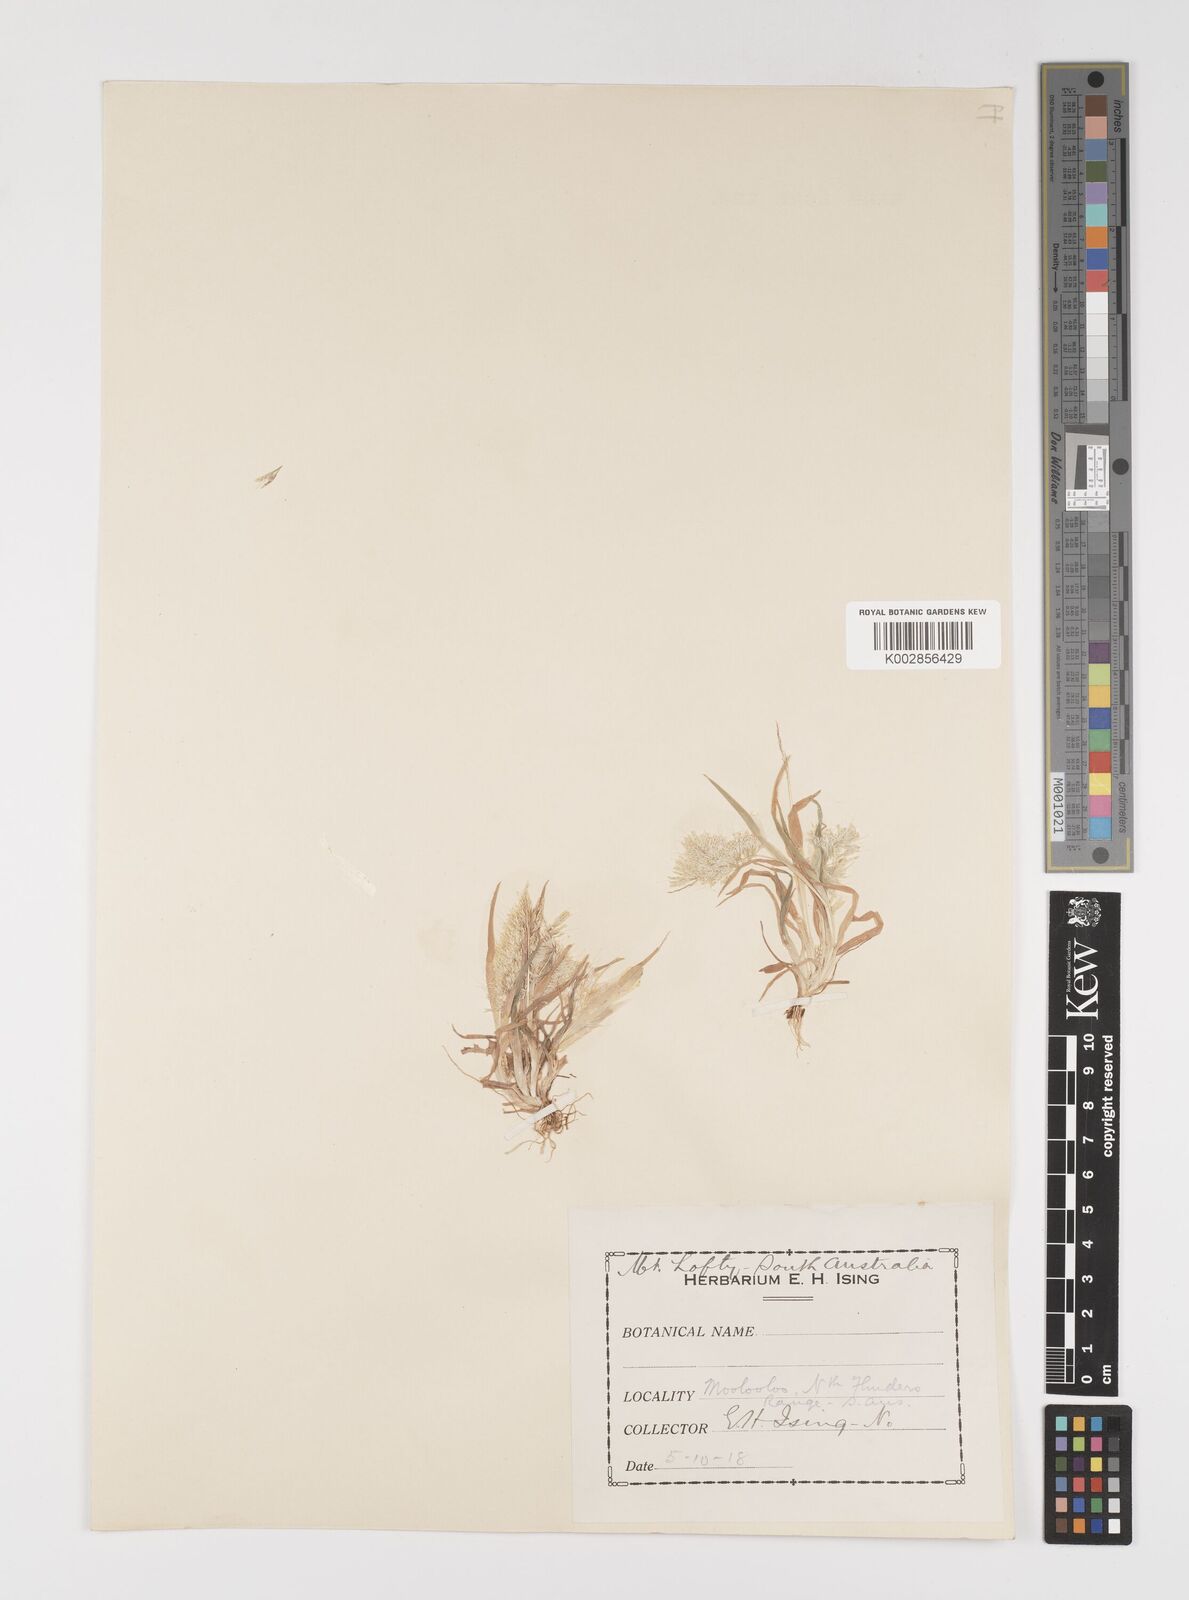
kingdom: Plantae
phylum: Tracheophyta
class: Liliopsida
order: Poales
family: Poaceae
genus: Lamarckia
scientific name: Lamarckia aurea
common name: Golden dog's-tail
